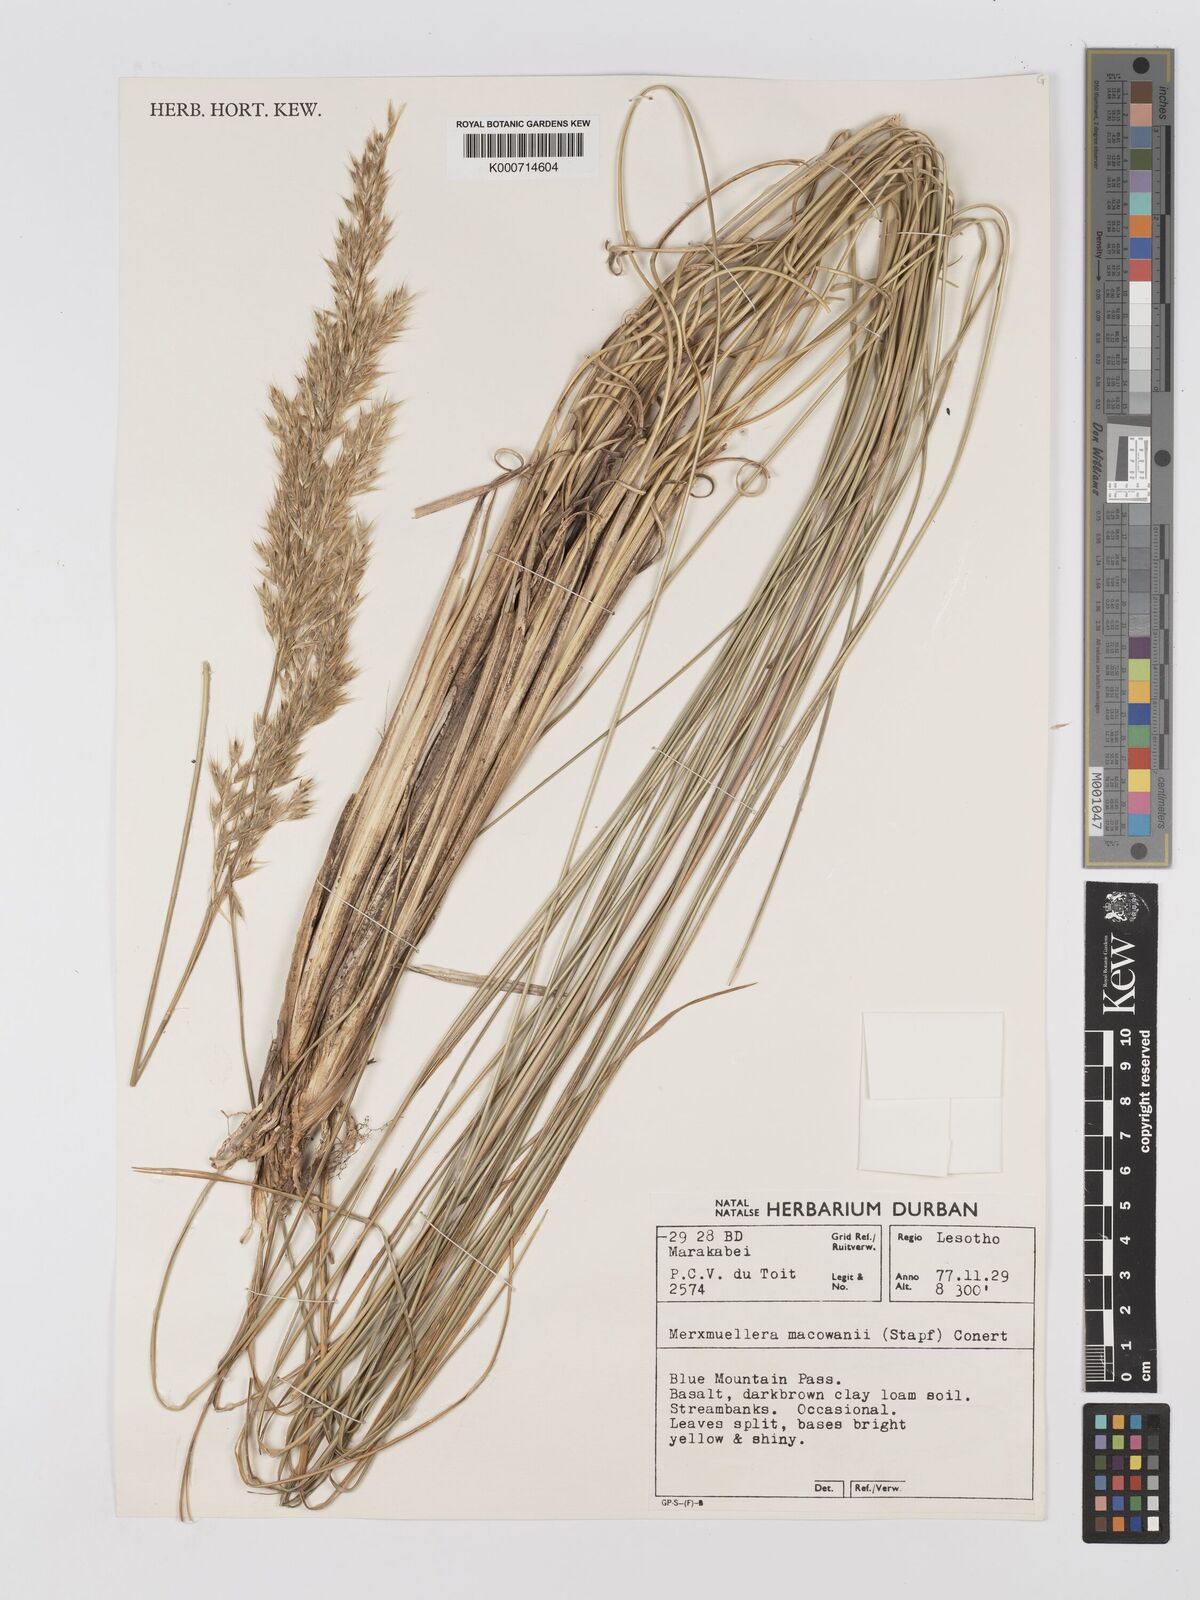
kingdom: Plantae
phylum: Tracheophyta
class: Liliopsida
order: Poales
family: Poaceae
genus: Rytidosperma
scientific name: Rytidosperma
